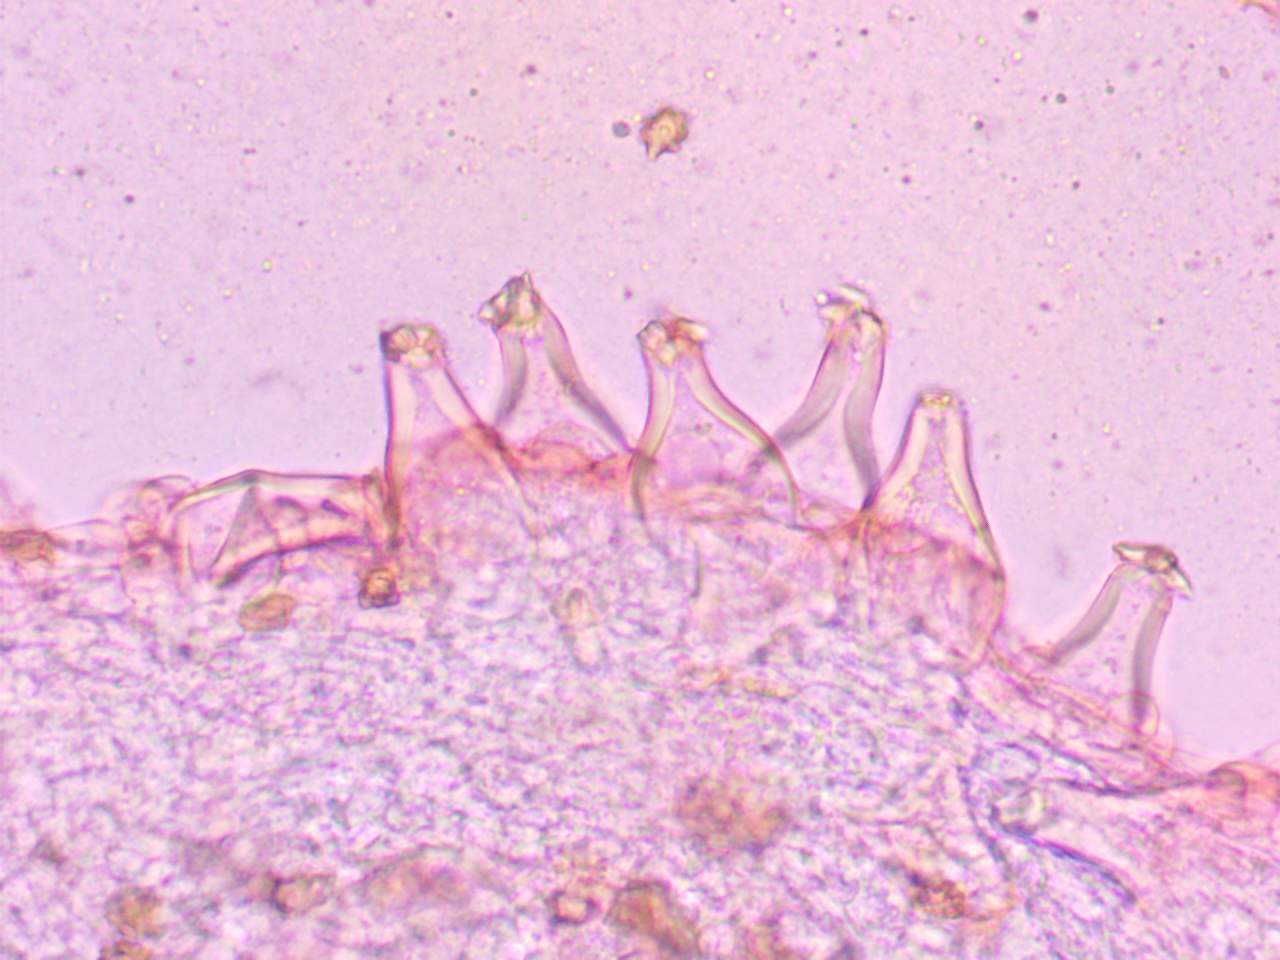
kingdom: Fungi
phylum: Basidiomycota
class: Agaricomycetes
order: Agaricales
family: Inocybaceae
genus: Inocybe
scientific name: Inocybe
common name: trævlhat
